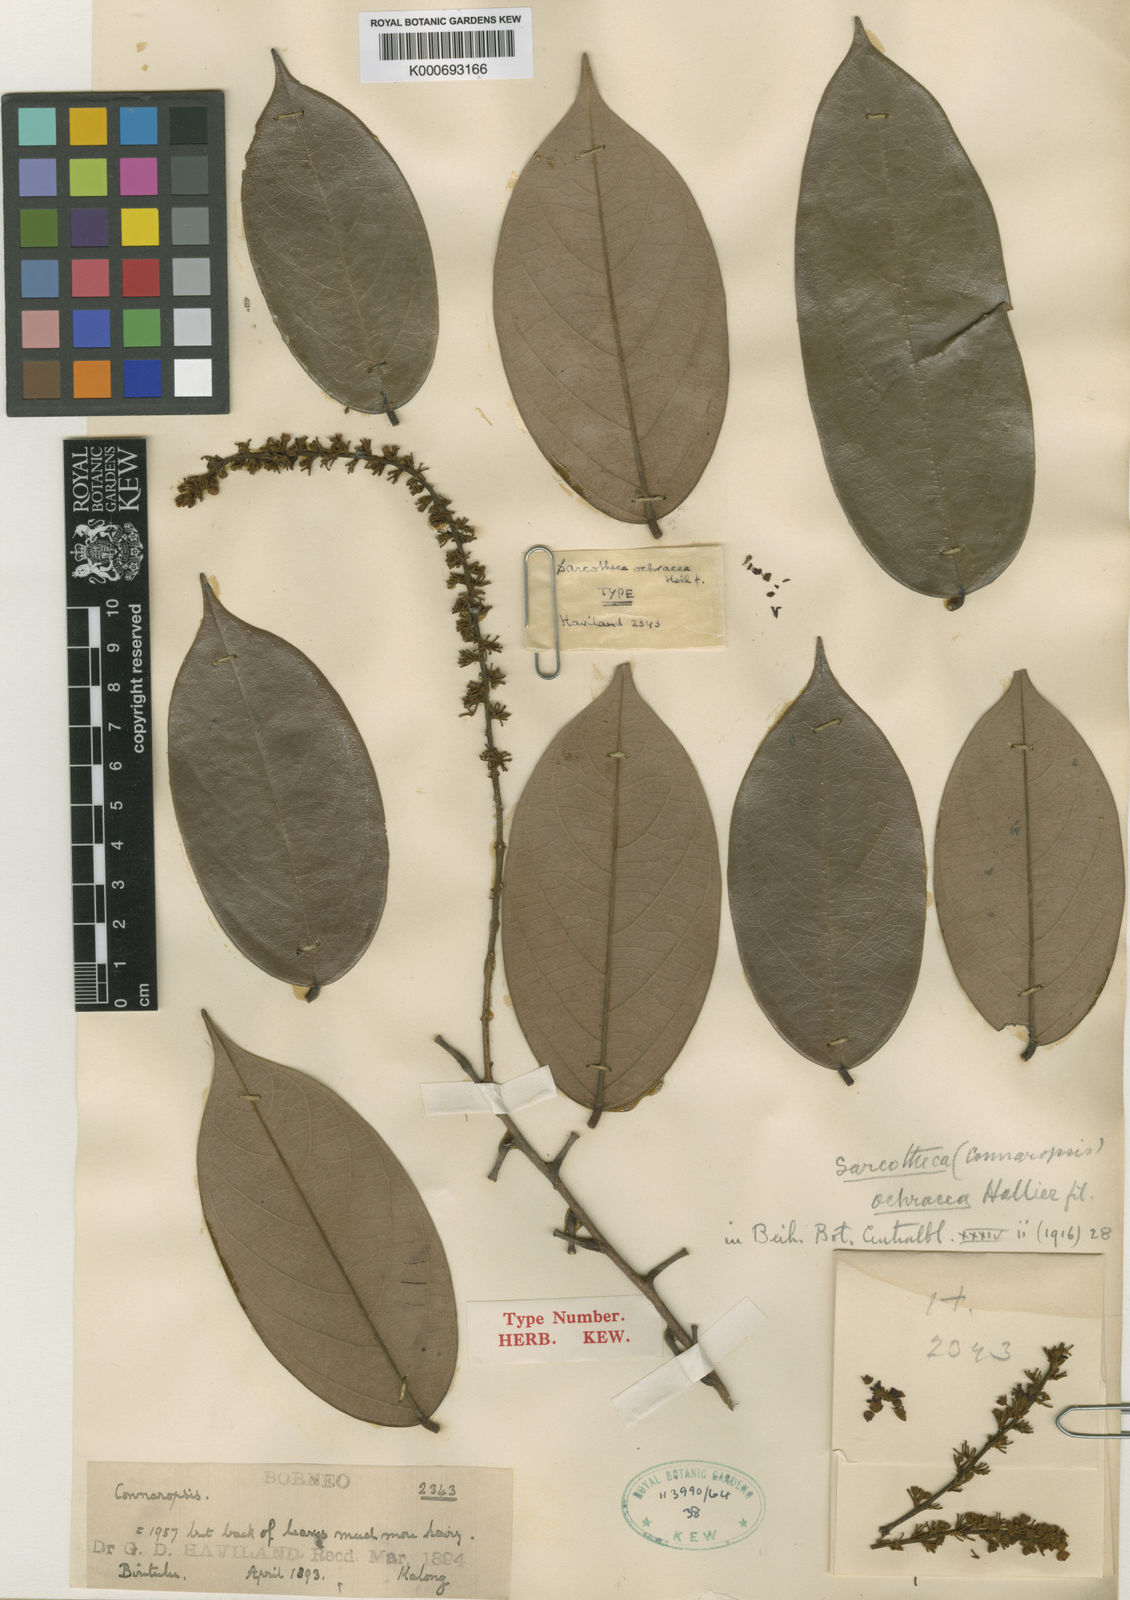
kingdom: Plantae
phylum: Tracheophyta
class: Magnoliopsida
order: Oxalidales
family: Oxalidaceae
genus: Sarcotheca
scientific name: Sarcotheca ochracea
